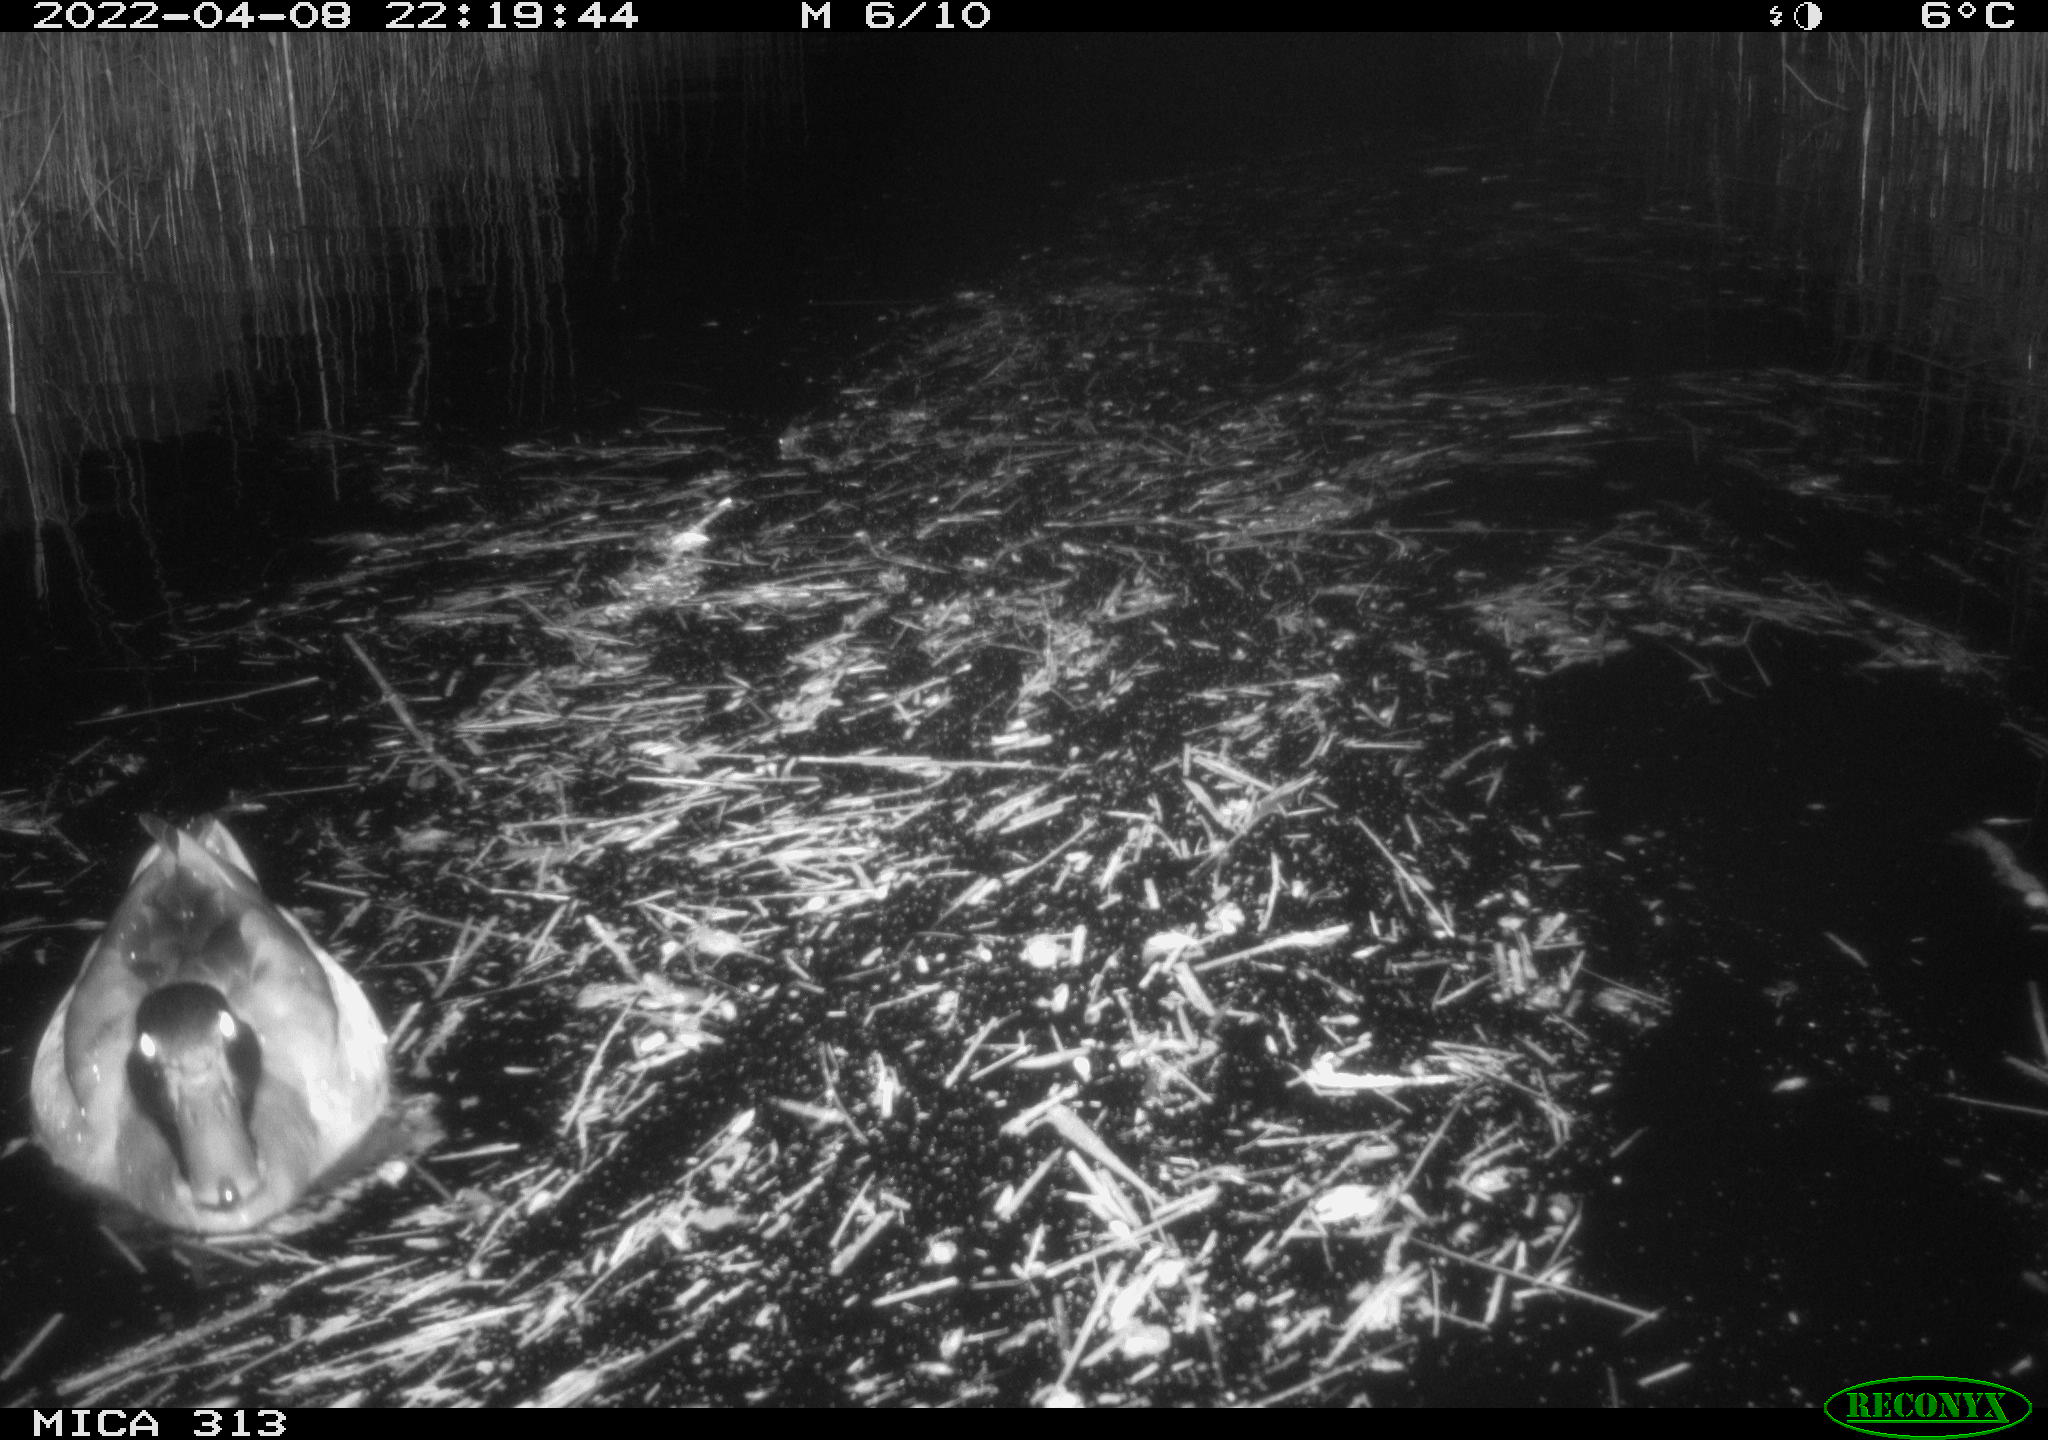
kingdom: Animalia
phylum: Chordata
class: Aves
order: Gruiformes
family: Rallidae
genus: Fulica
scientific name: Fulica atra
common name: Eurasian coot
